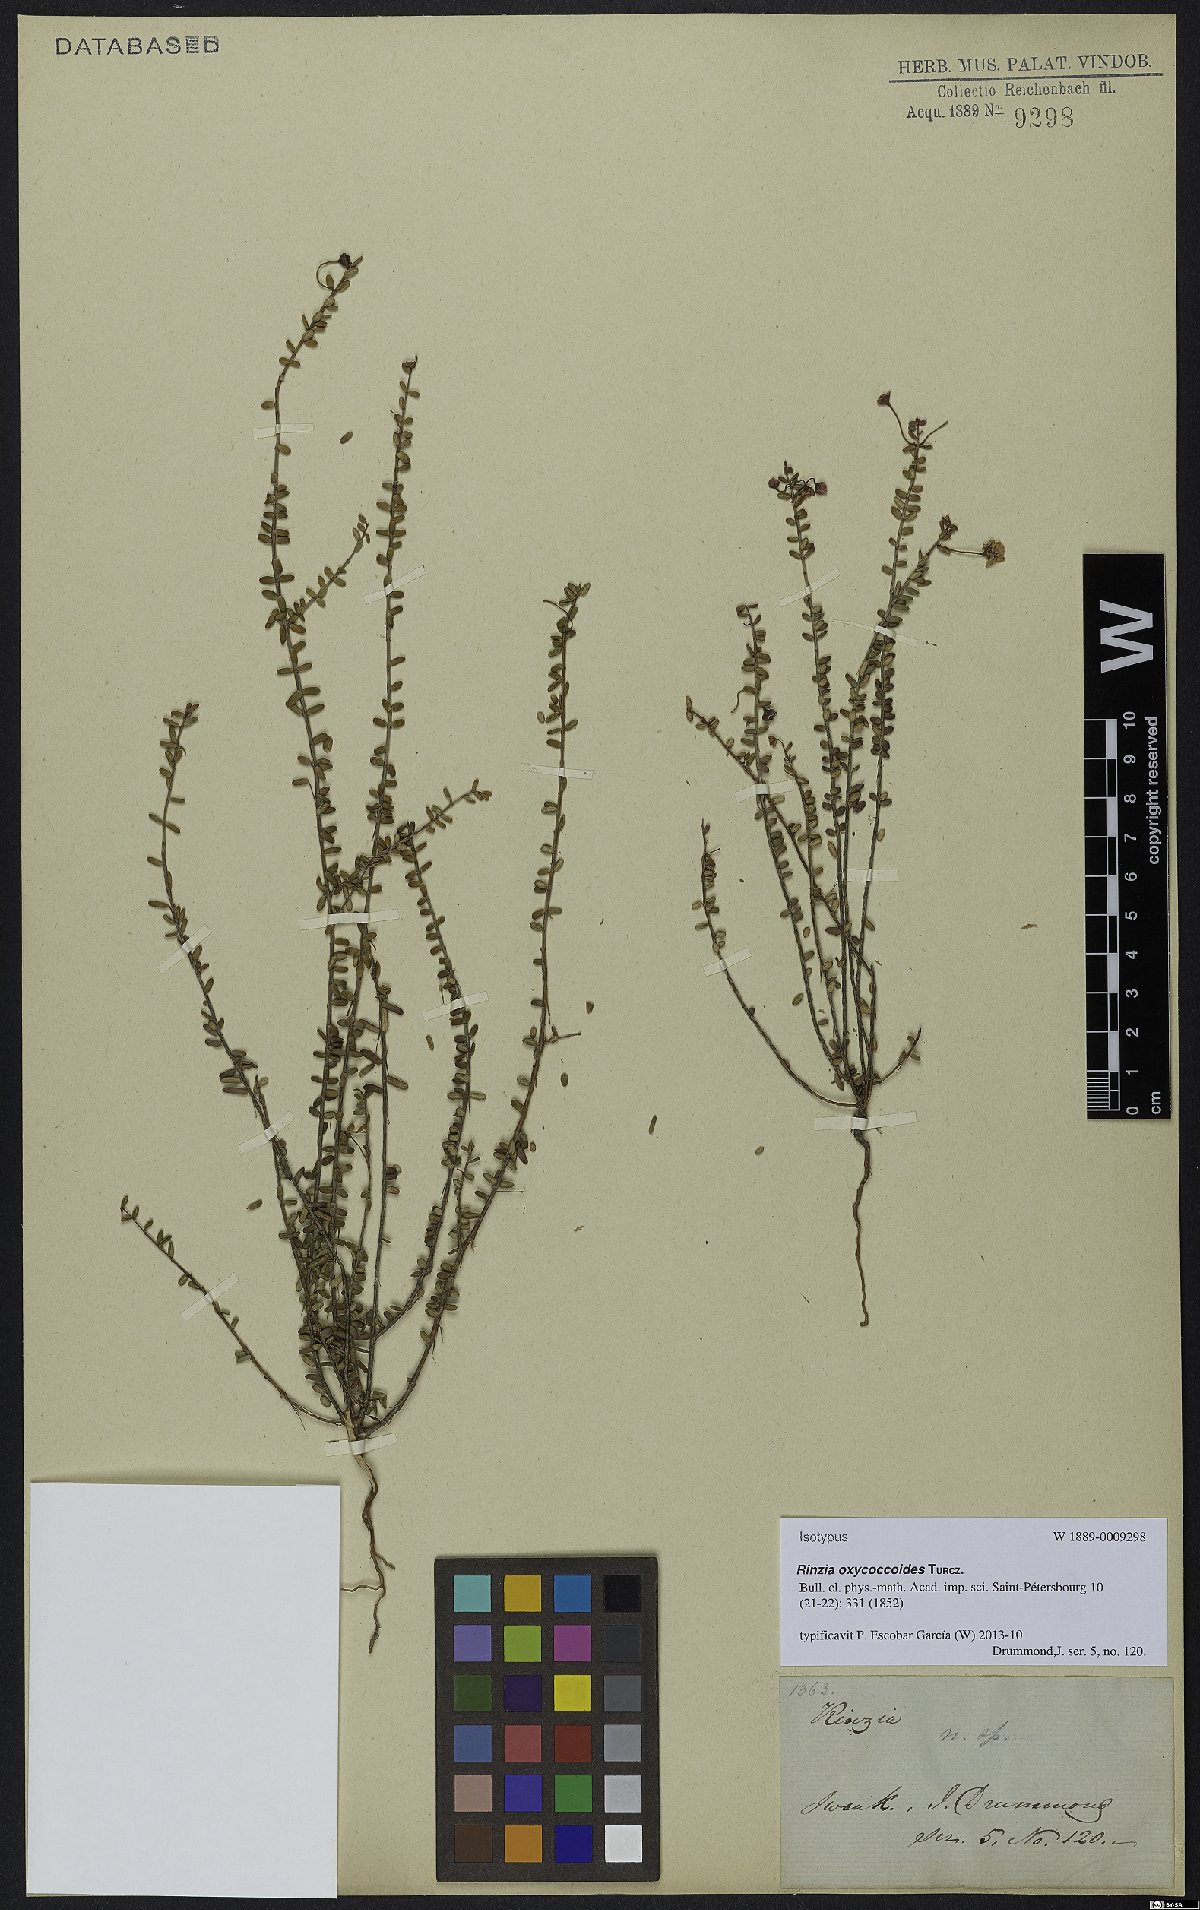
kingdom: Plantae
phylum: Tracheophyta
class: Magnoliopsida
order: Myrtales
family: Myrtaceae
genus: Rinzia
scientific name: Rinzia oxycoccoides
